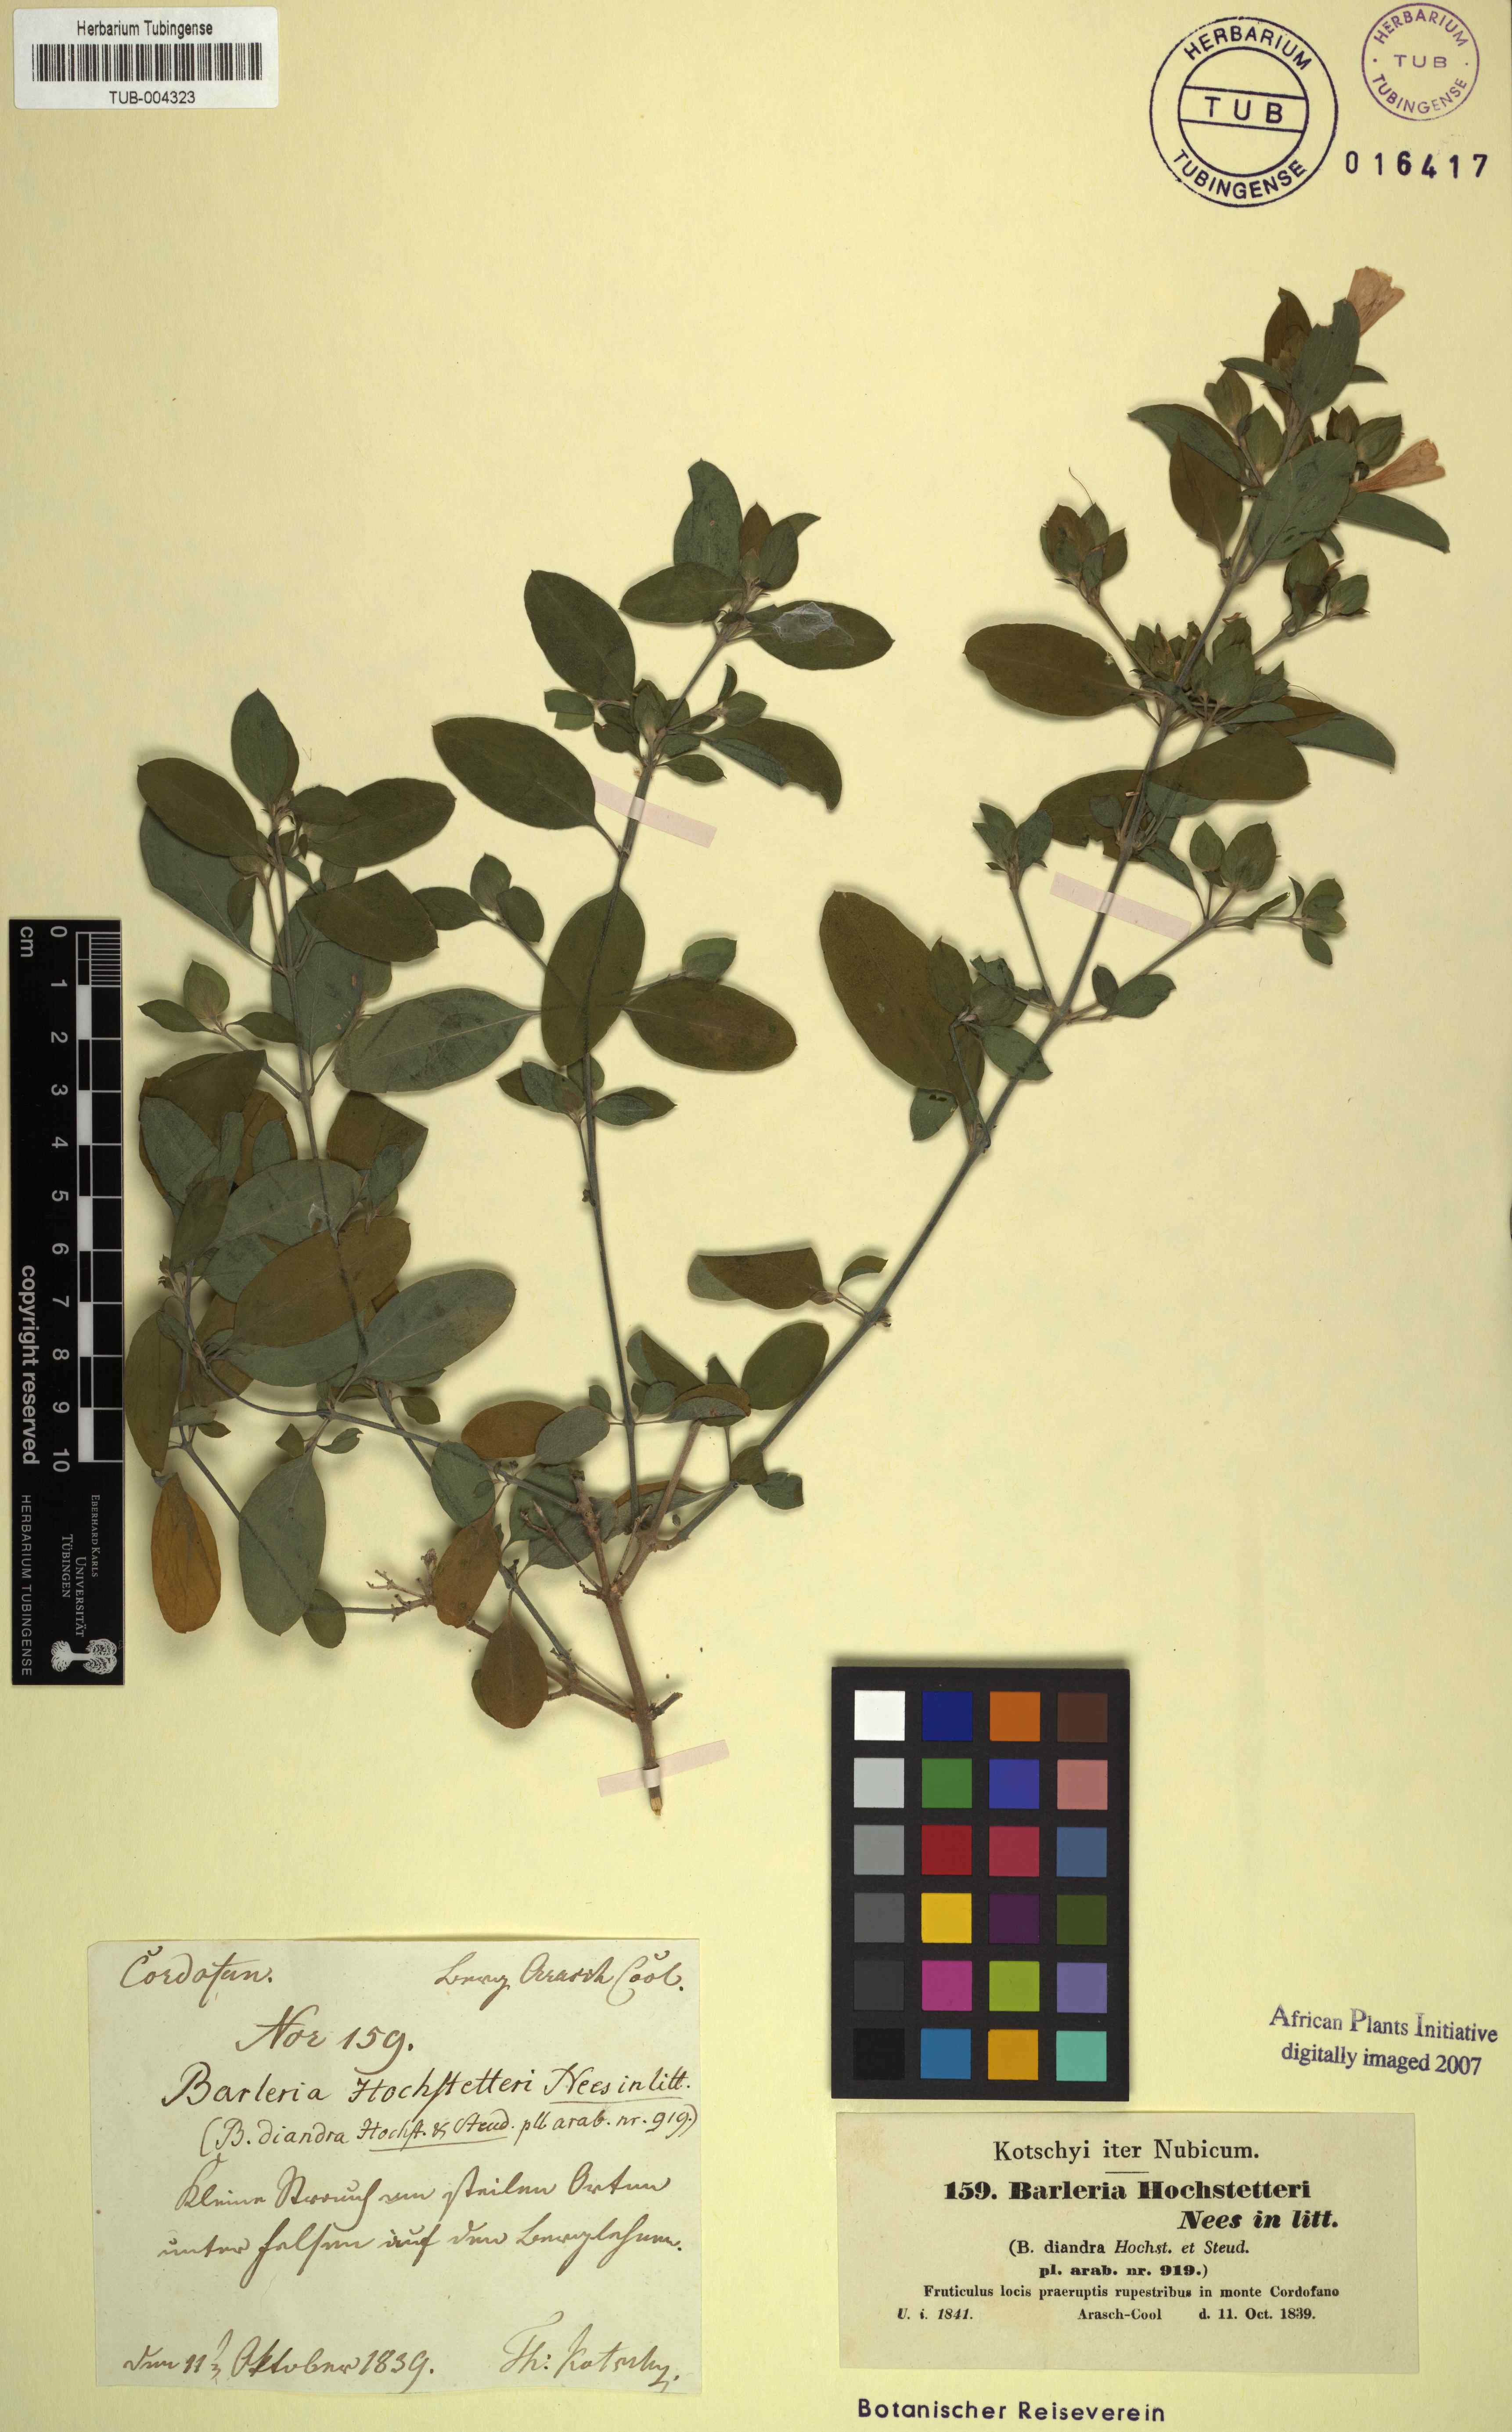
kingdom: Plantae
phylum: Tracheophyta
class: Magnoliopsida
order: Lamiales
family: Acanthaceae
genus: Barleria
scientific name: Barleria hochstetteri
